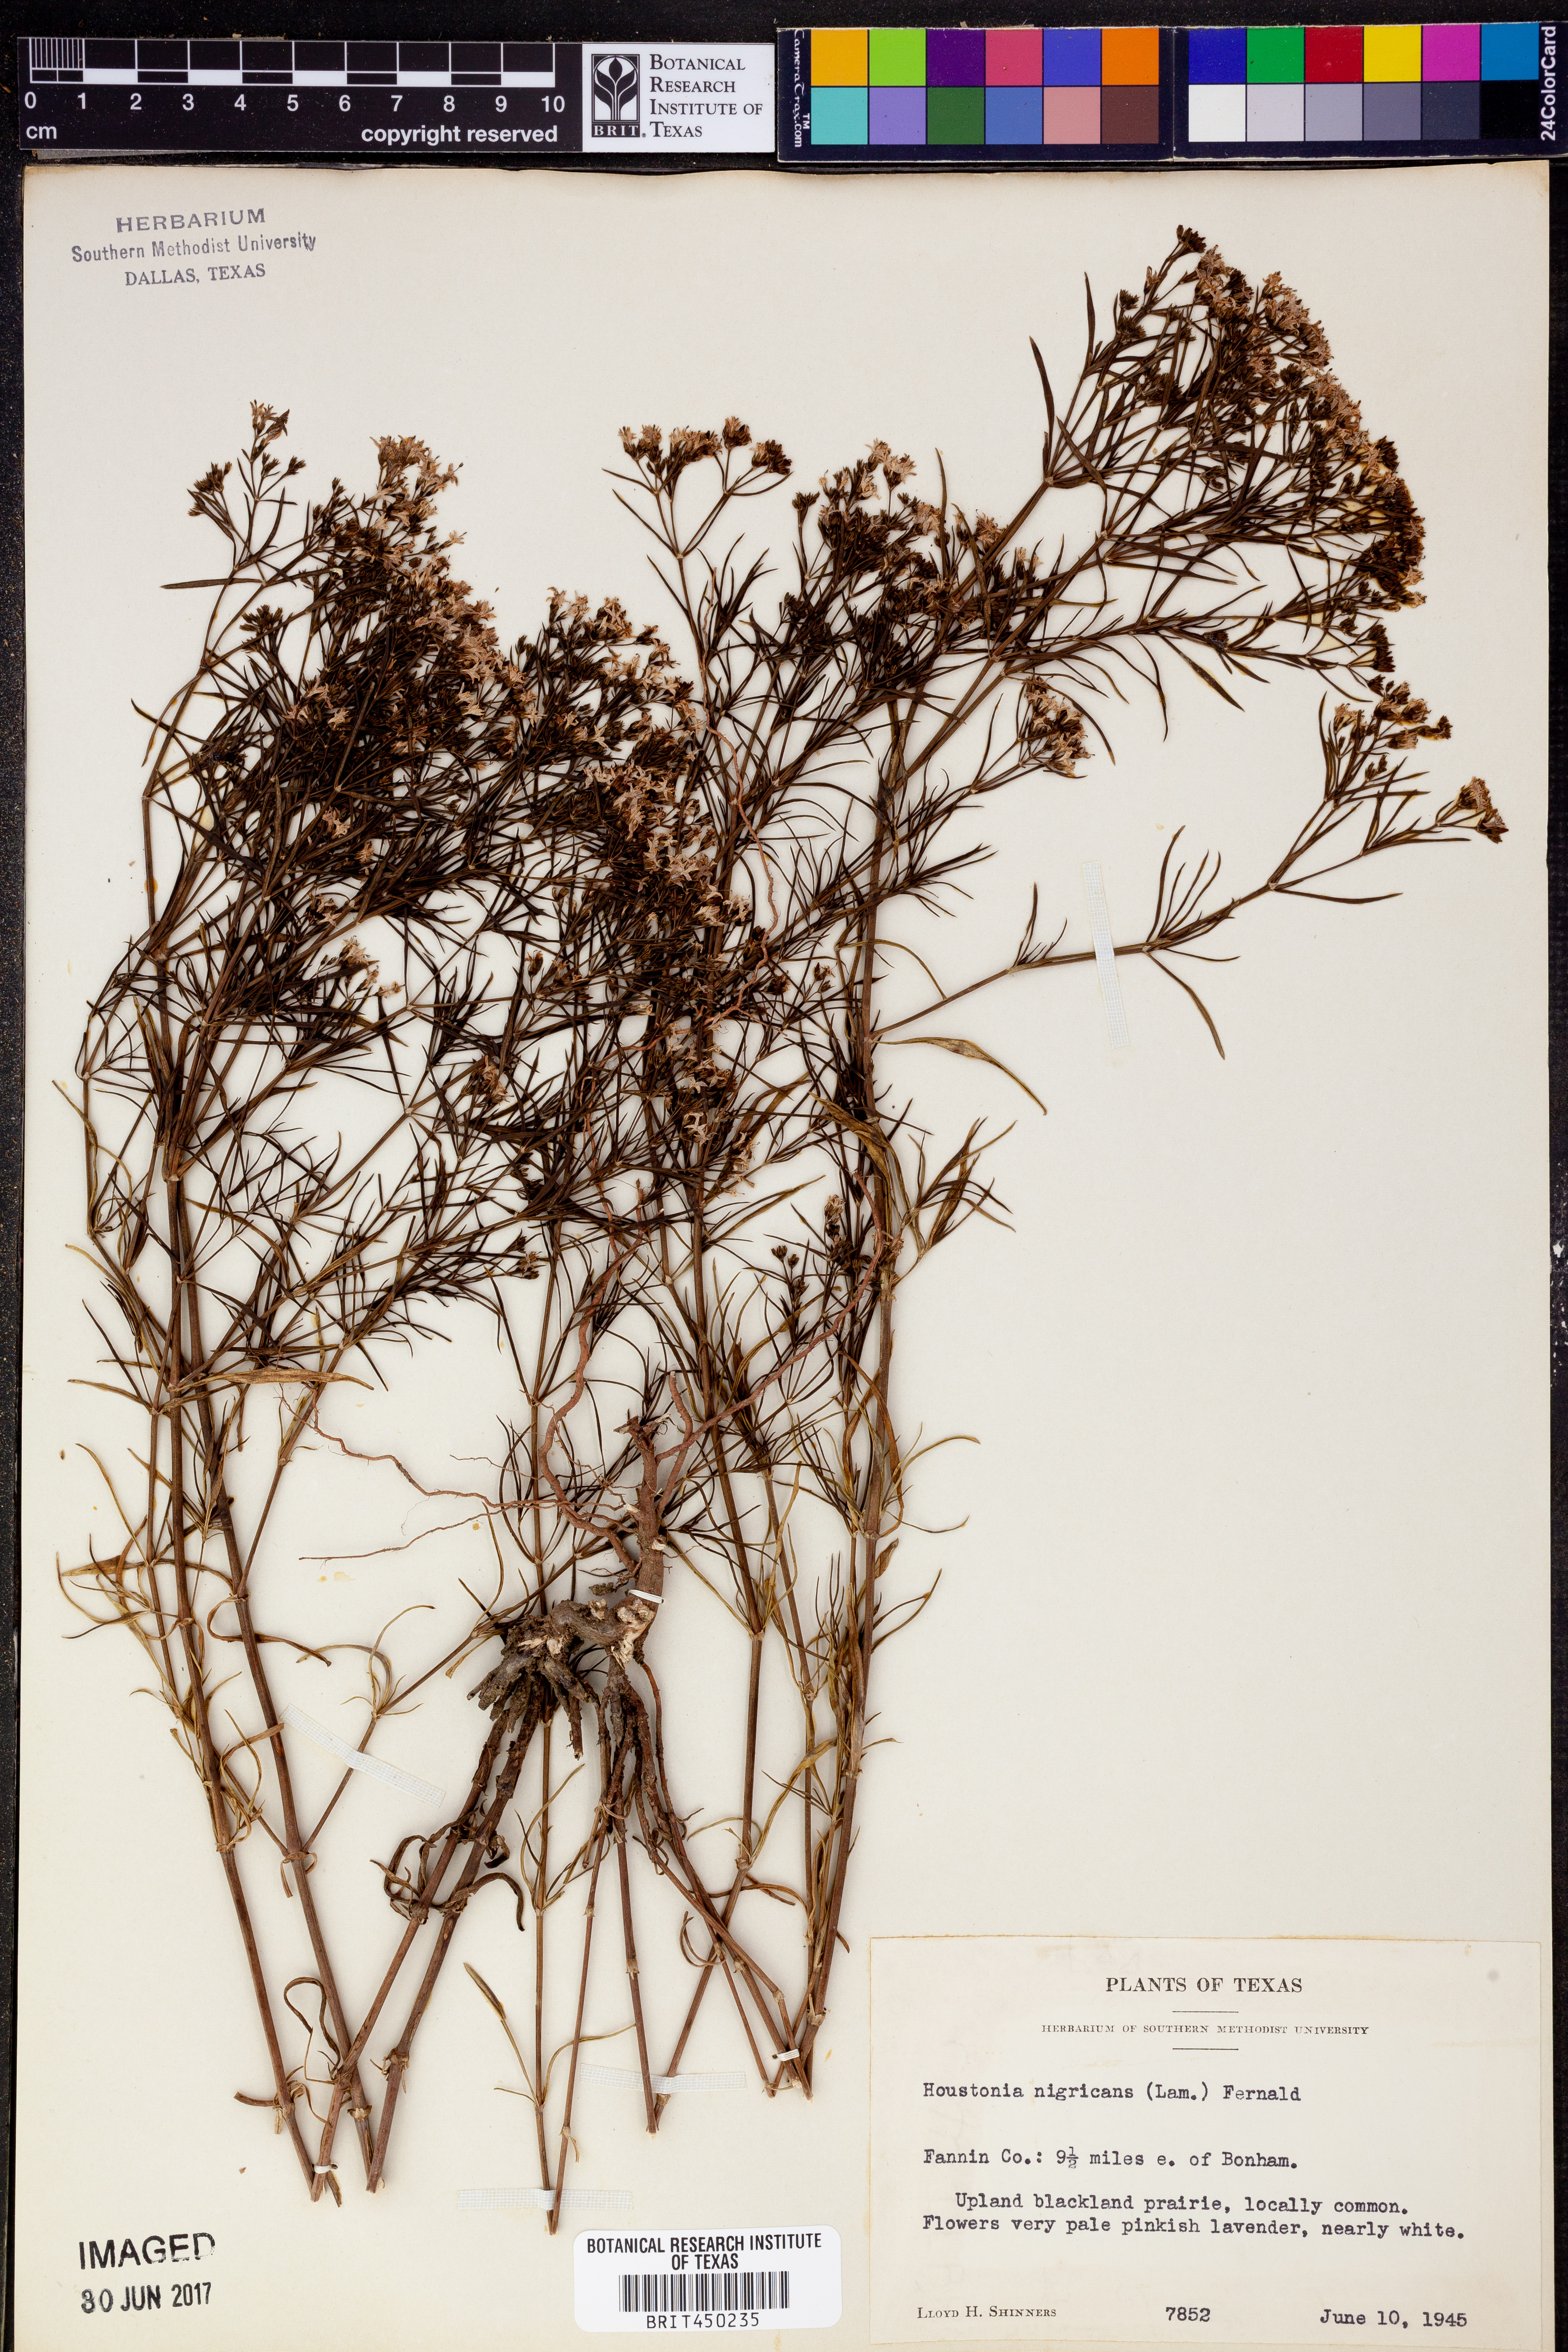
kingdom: Plantae
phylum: Tracheophyta
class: Magnoliopsida
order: Gentianales
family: Rubiaceae
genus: Stenaria
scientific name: Stenaria nigricans
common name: Diamondflowers
